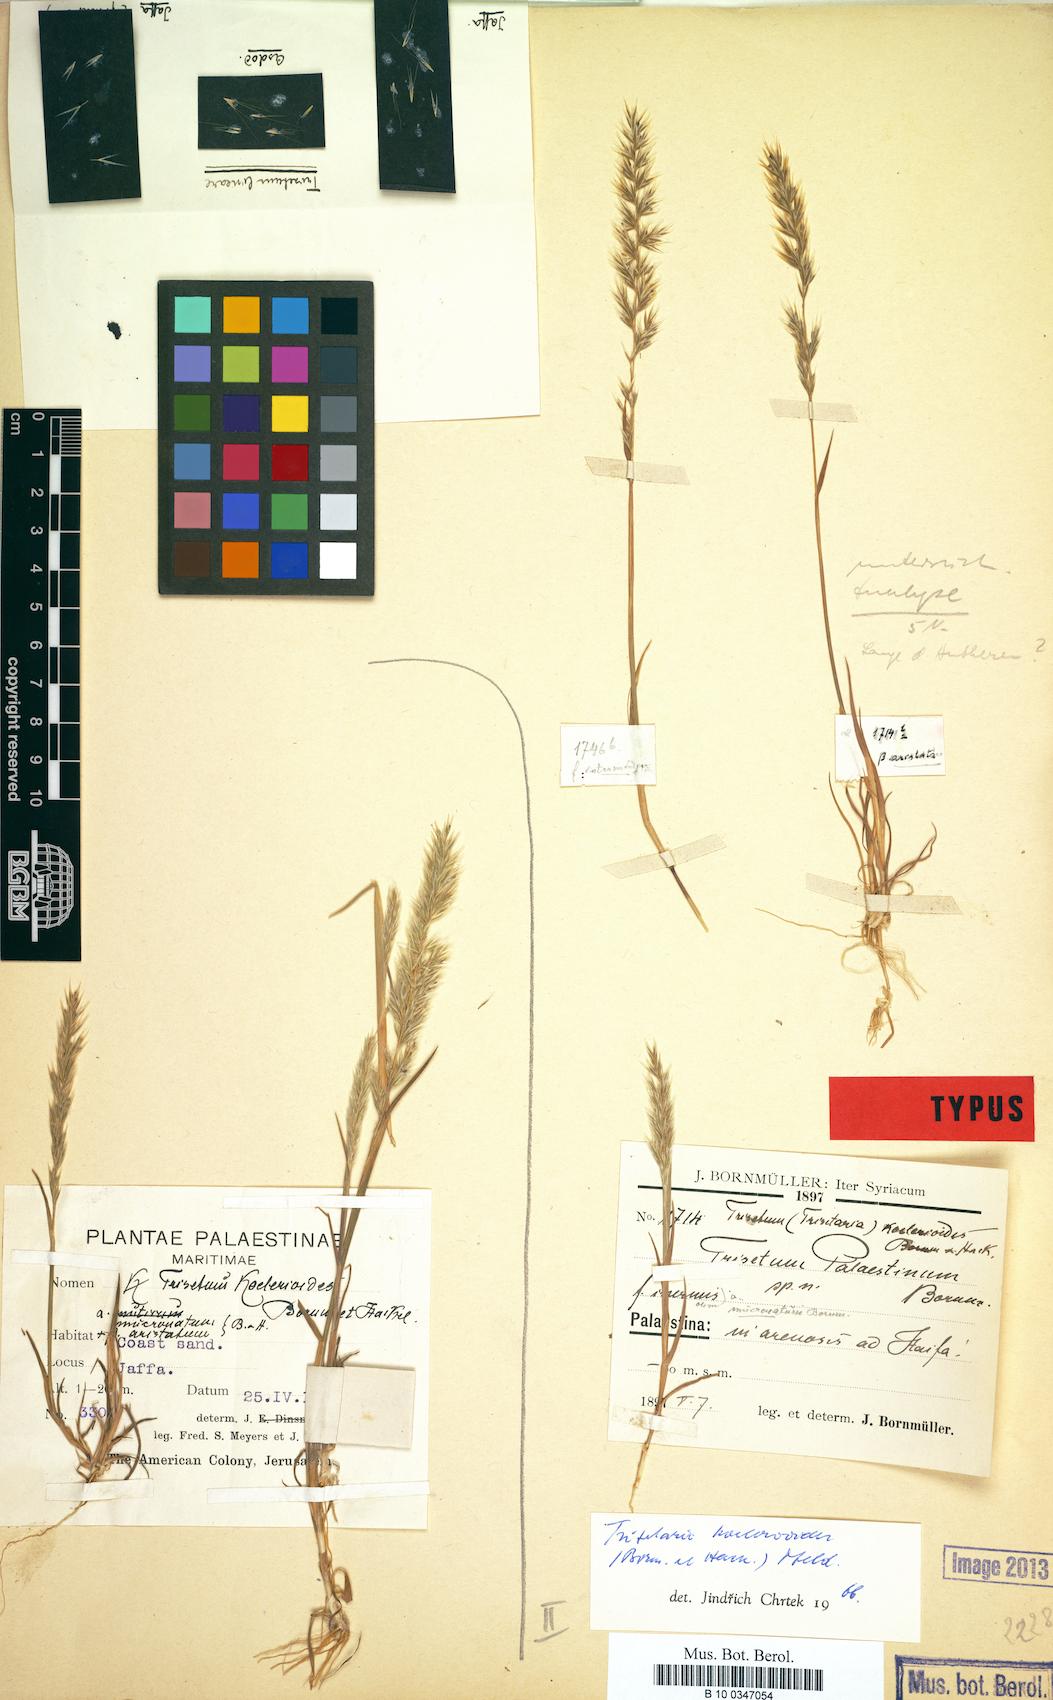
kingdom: Plantae
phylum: Tracheophyta
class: Liliopsida
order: Poales
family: Poaceae
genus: Trisetaria
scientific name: Trisetaria koelerioides
